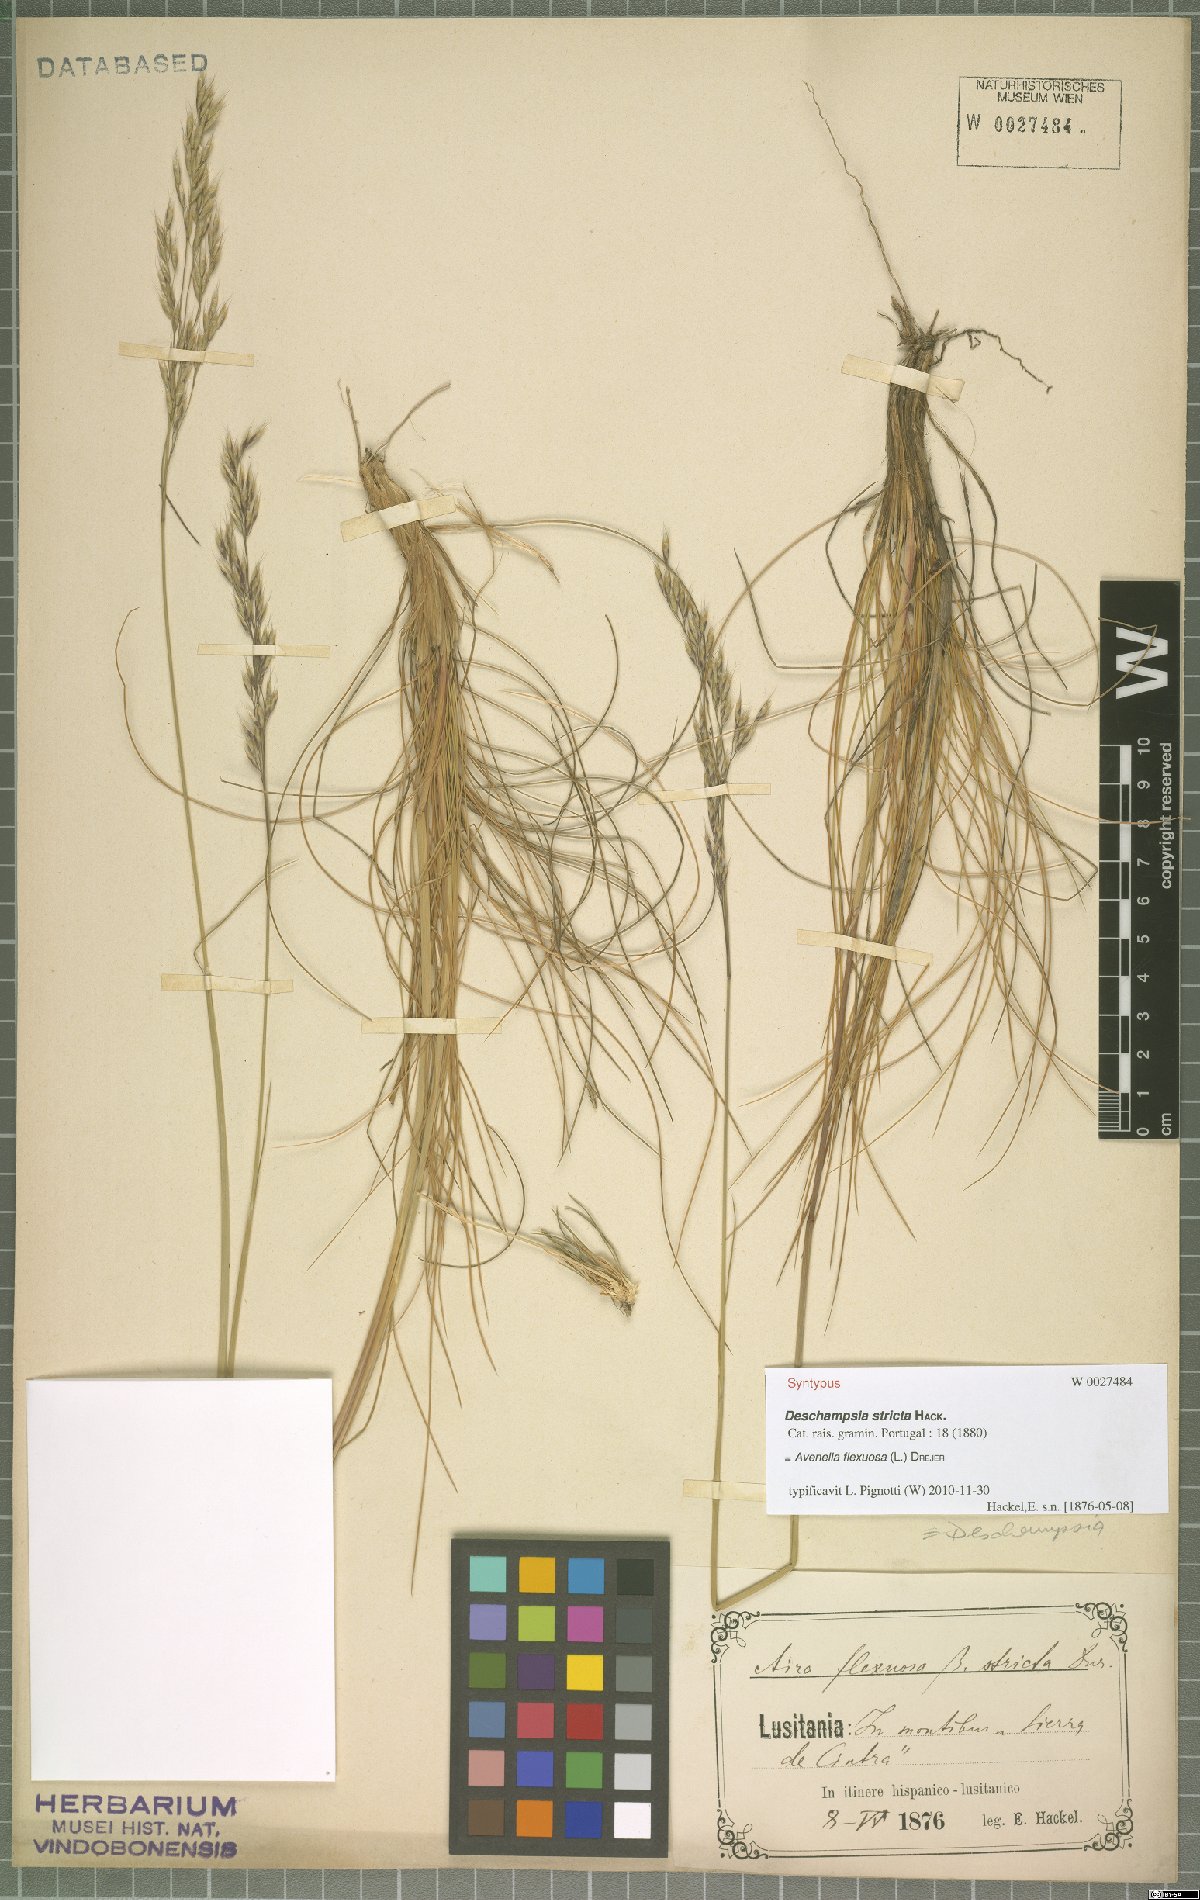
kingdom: Plantae
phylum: Tracheophyta
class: Liliopsida
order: Poales
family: Poaceae
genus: Avenella
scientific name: Avenella flexuosa
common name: Wavy hairgrass
